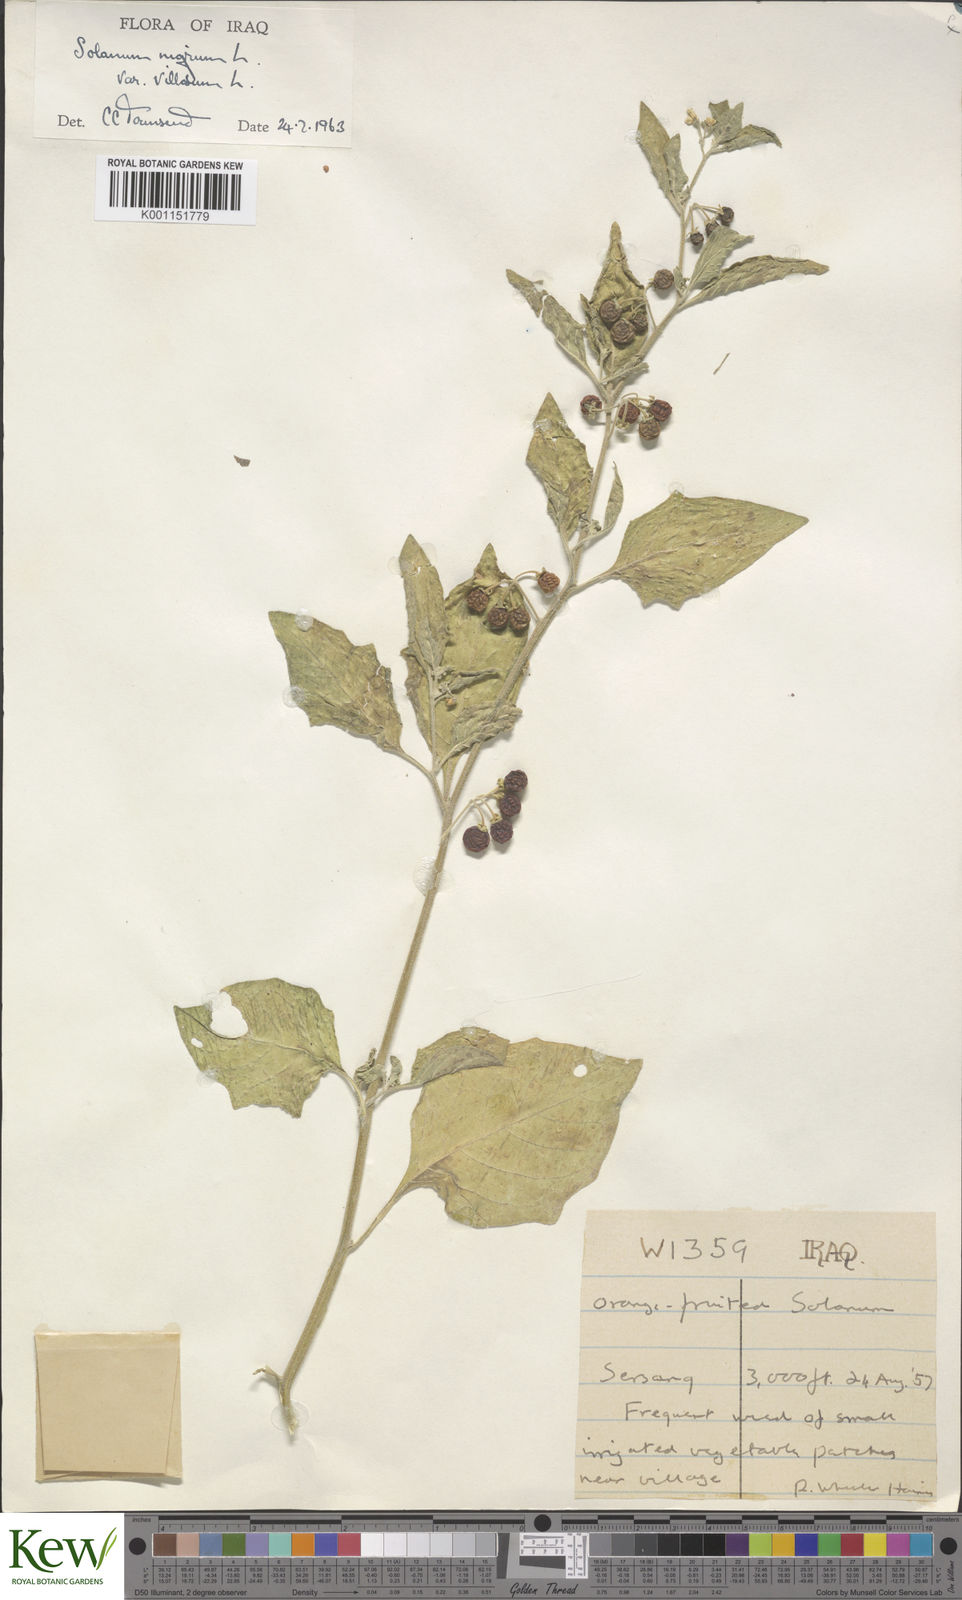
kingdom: Plantae
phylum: Tracheophyta
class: Magnoliopsida
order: Solanales
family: Solanaceae
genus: Solanum
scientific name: Solanum villosum
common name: Red nightshade
